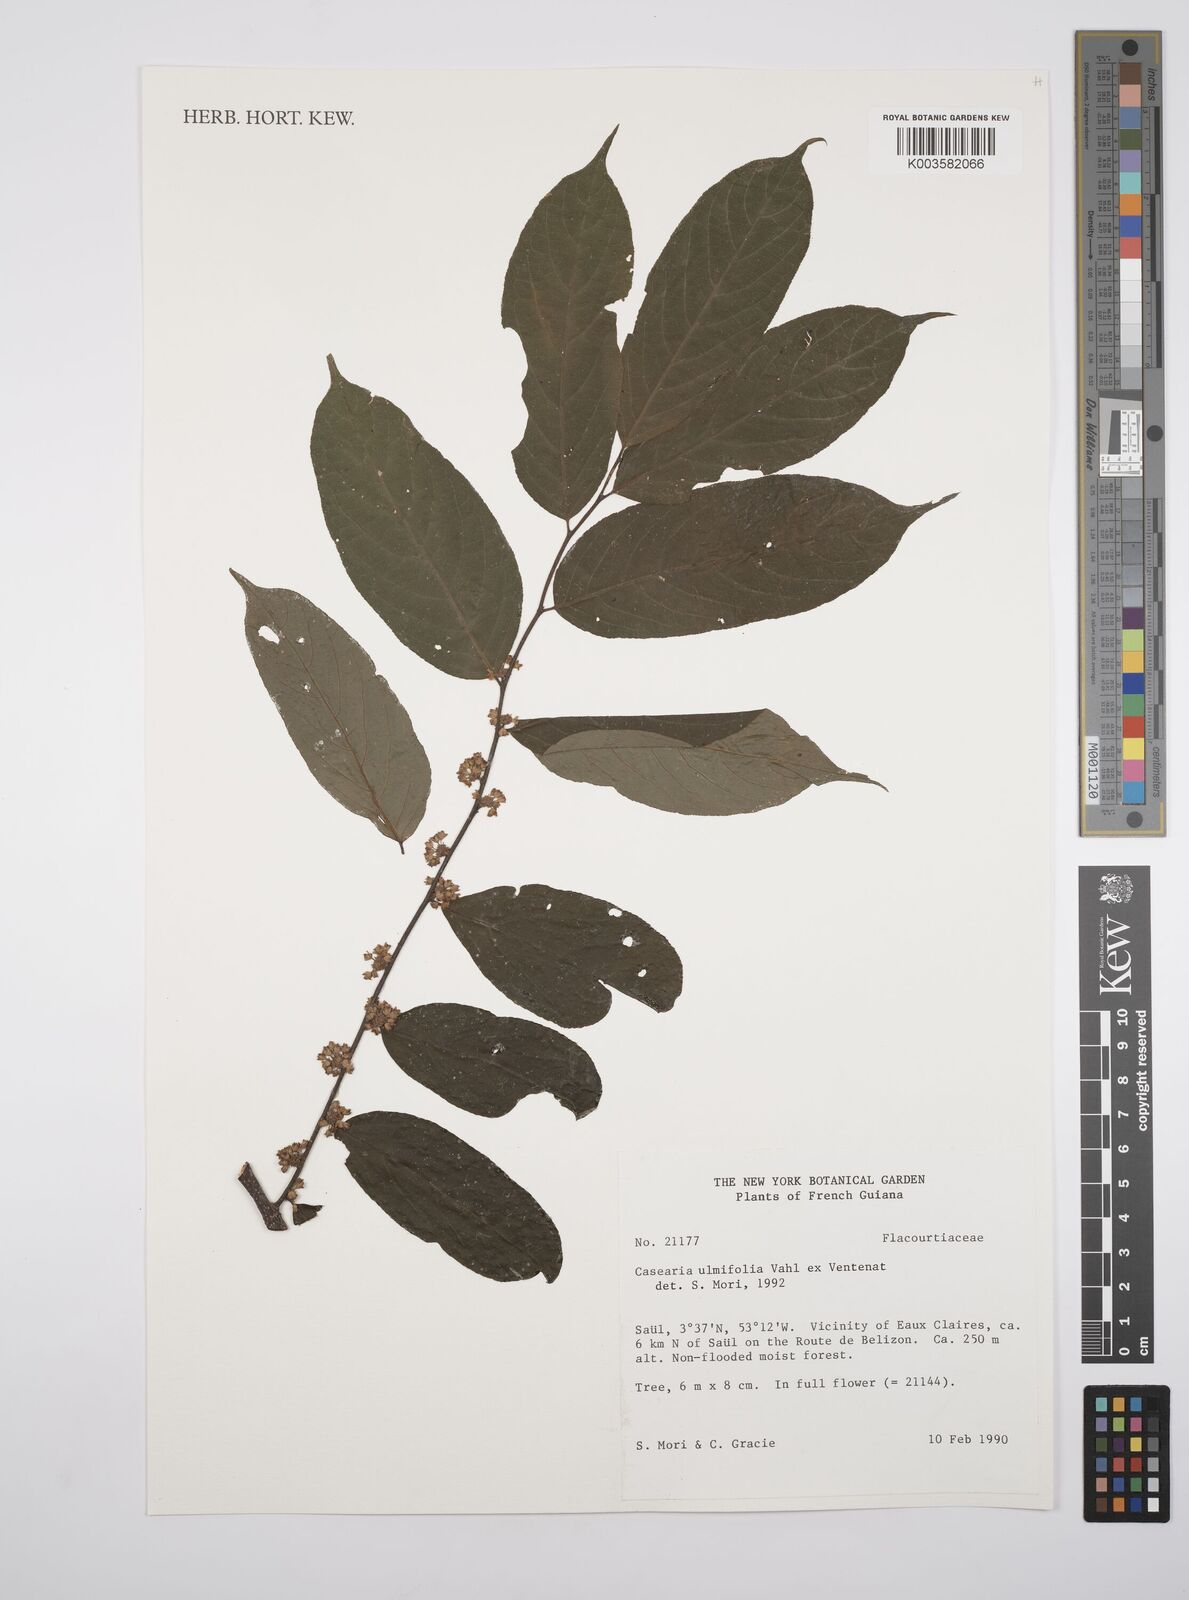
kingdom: Plantae
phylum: Tracheophyta
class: Magnoliopsida
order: Malpighiales
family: Salicaceae
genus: Casearia
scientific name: Casearia ulmifolia
